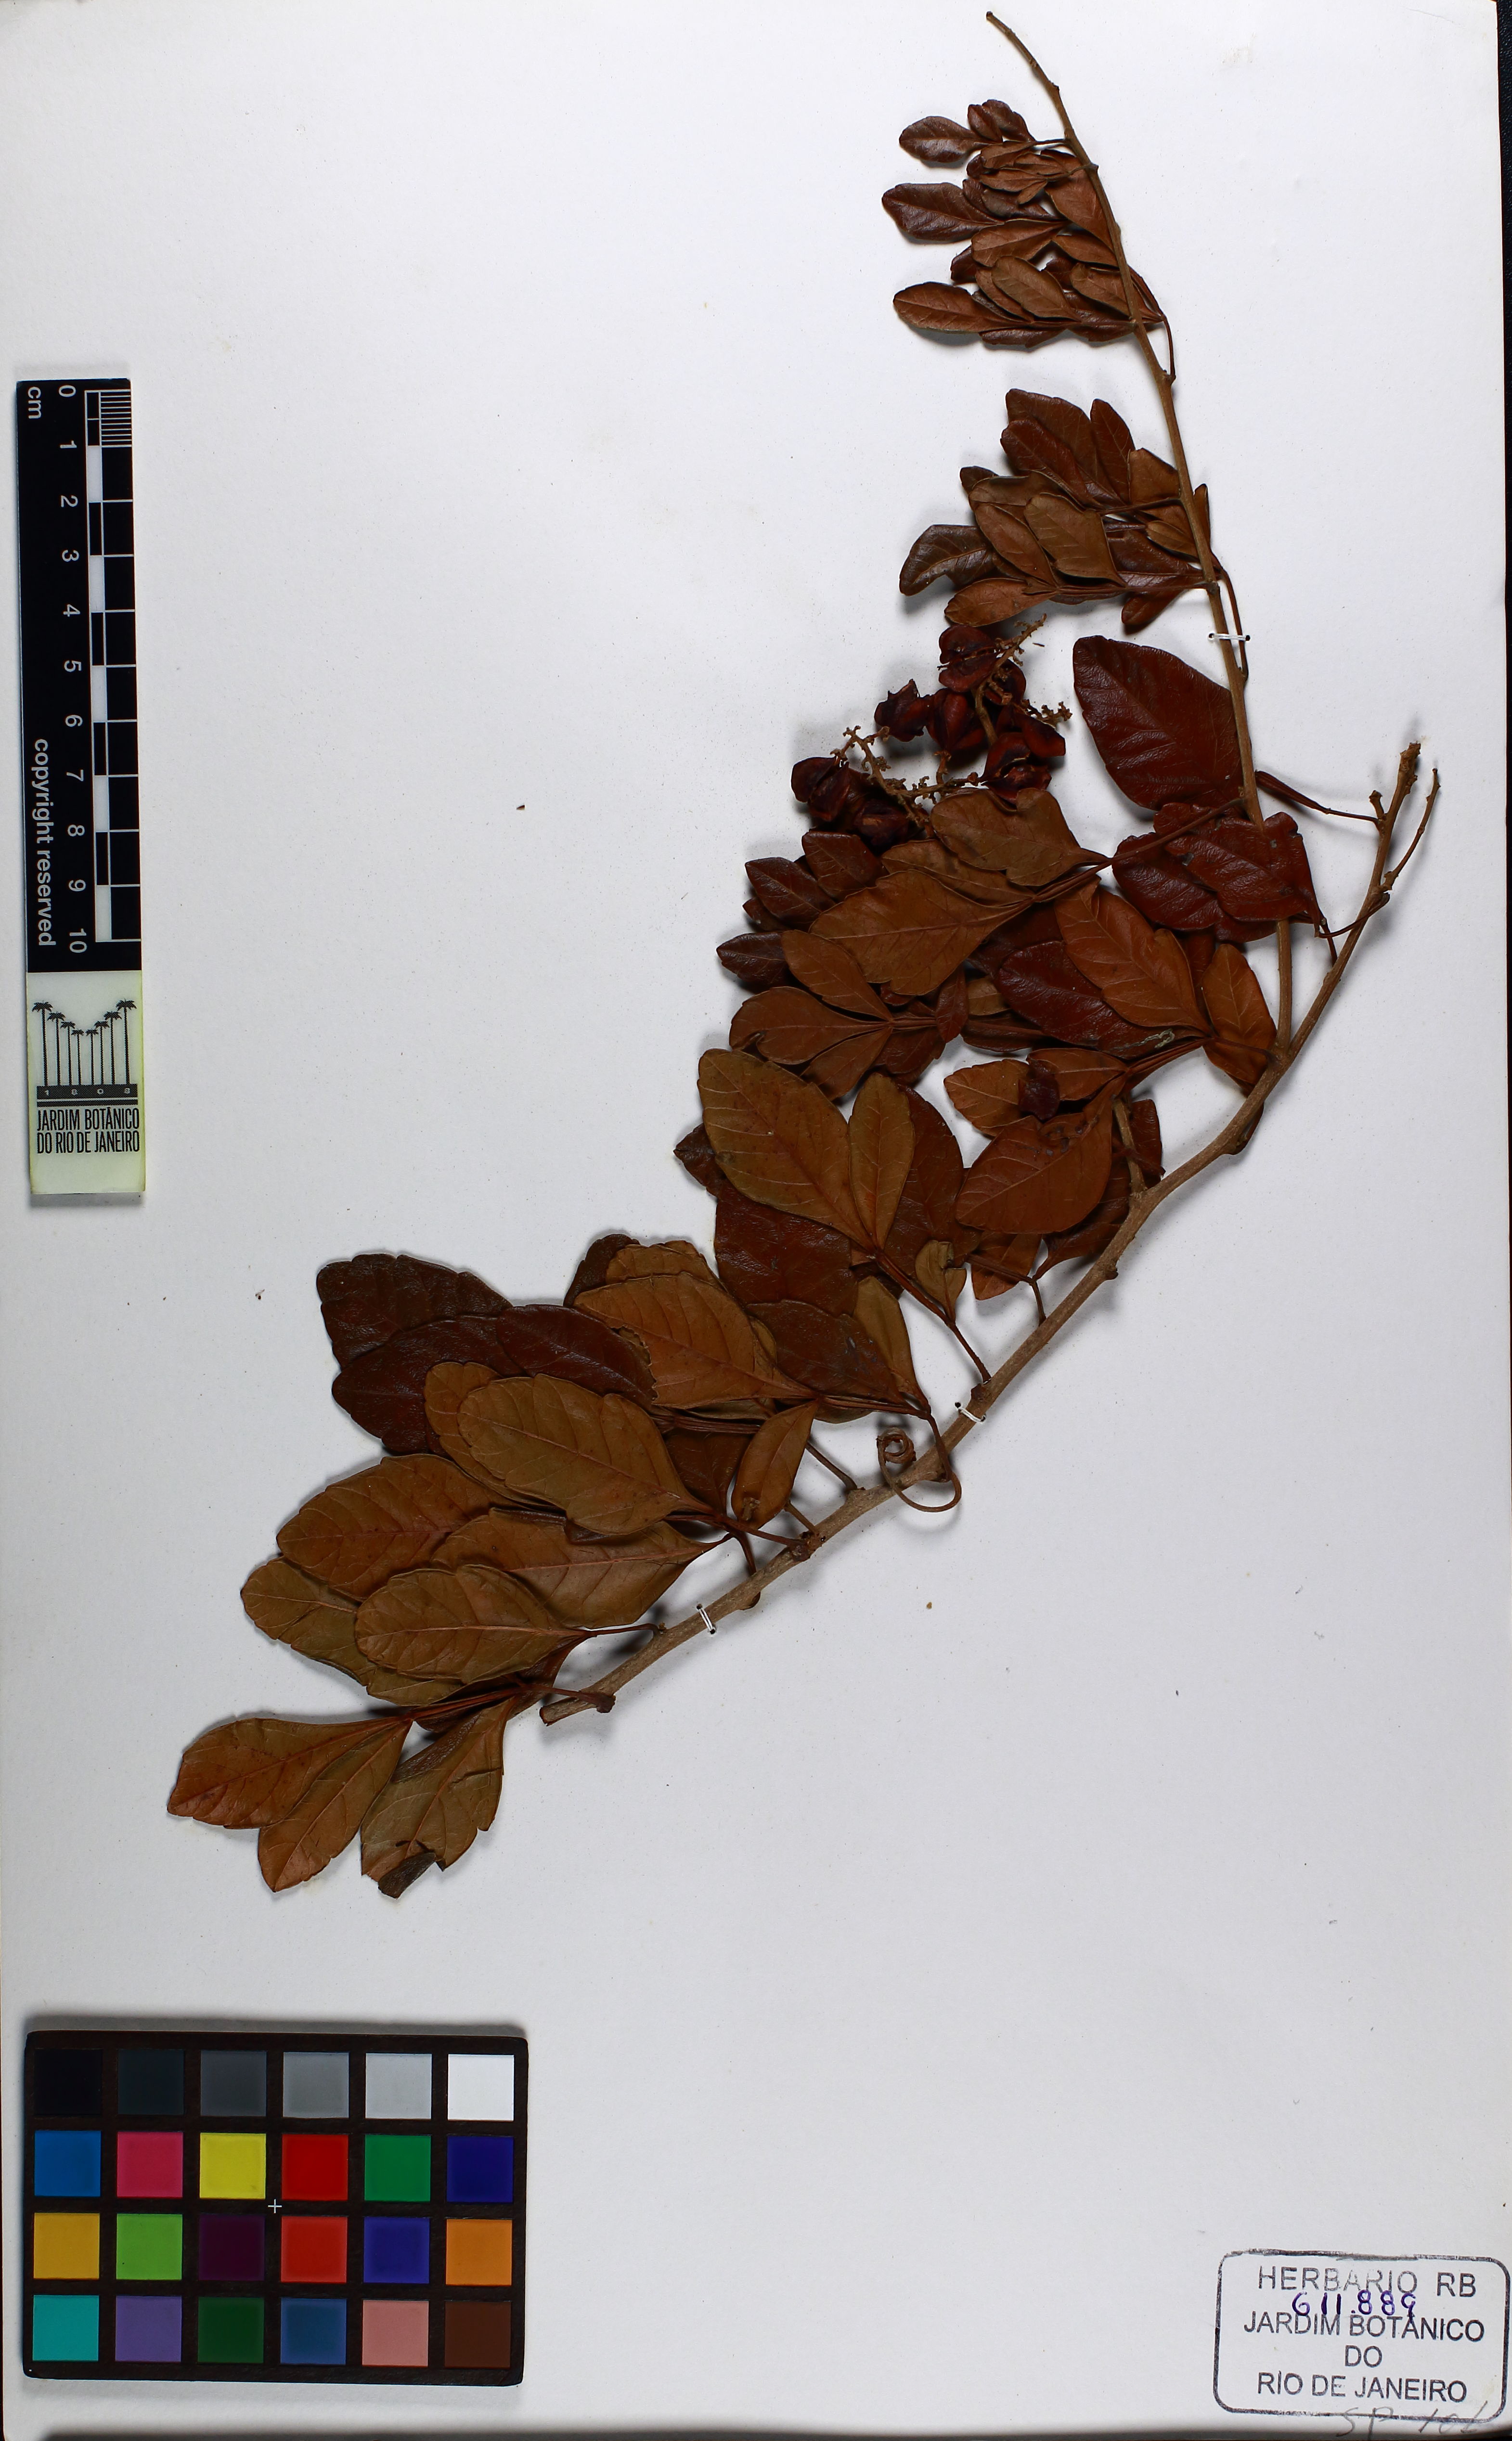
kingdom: Plantae
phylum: Tracheophyta
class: Magnoliopsida
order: Sapindales
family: Sapindaceae
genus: Paullinia
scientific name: Paullinia weinmanniifolia
